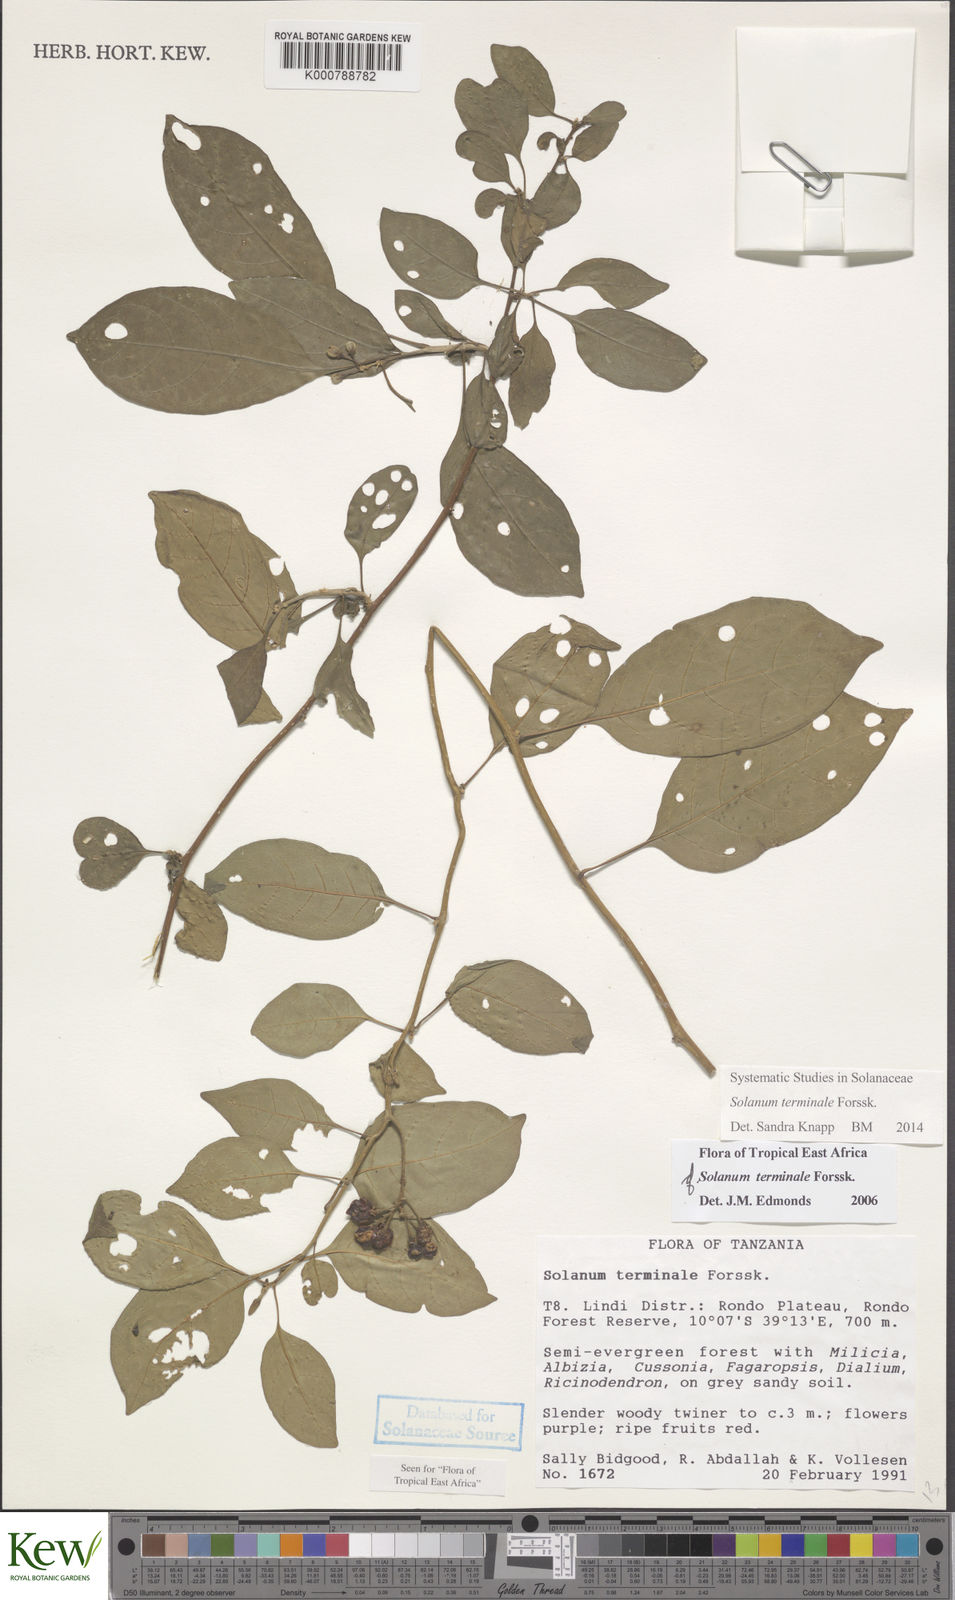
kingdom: Plantae
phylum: Tracheophyta
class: Magnoliopsida
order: Solanales
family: Solanaceae
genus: Solanum
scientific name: Solanum terminale
